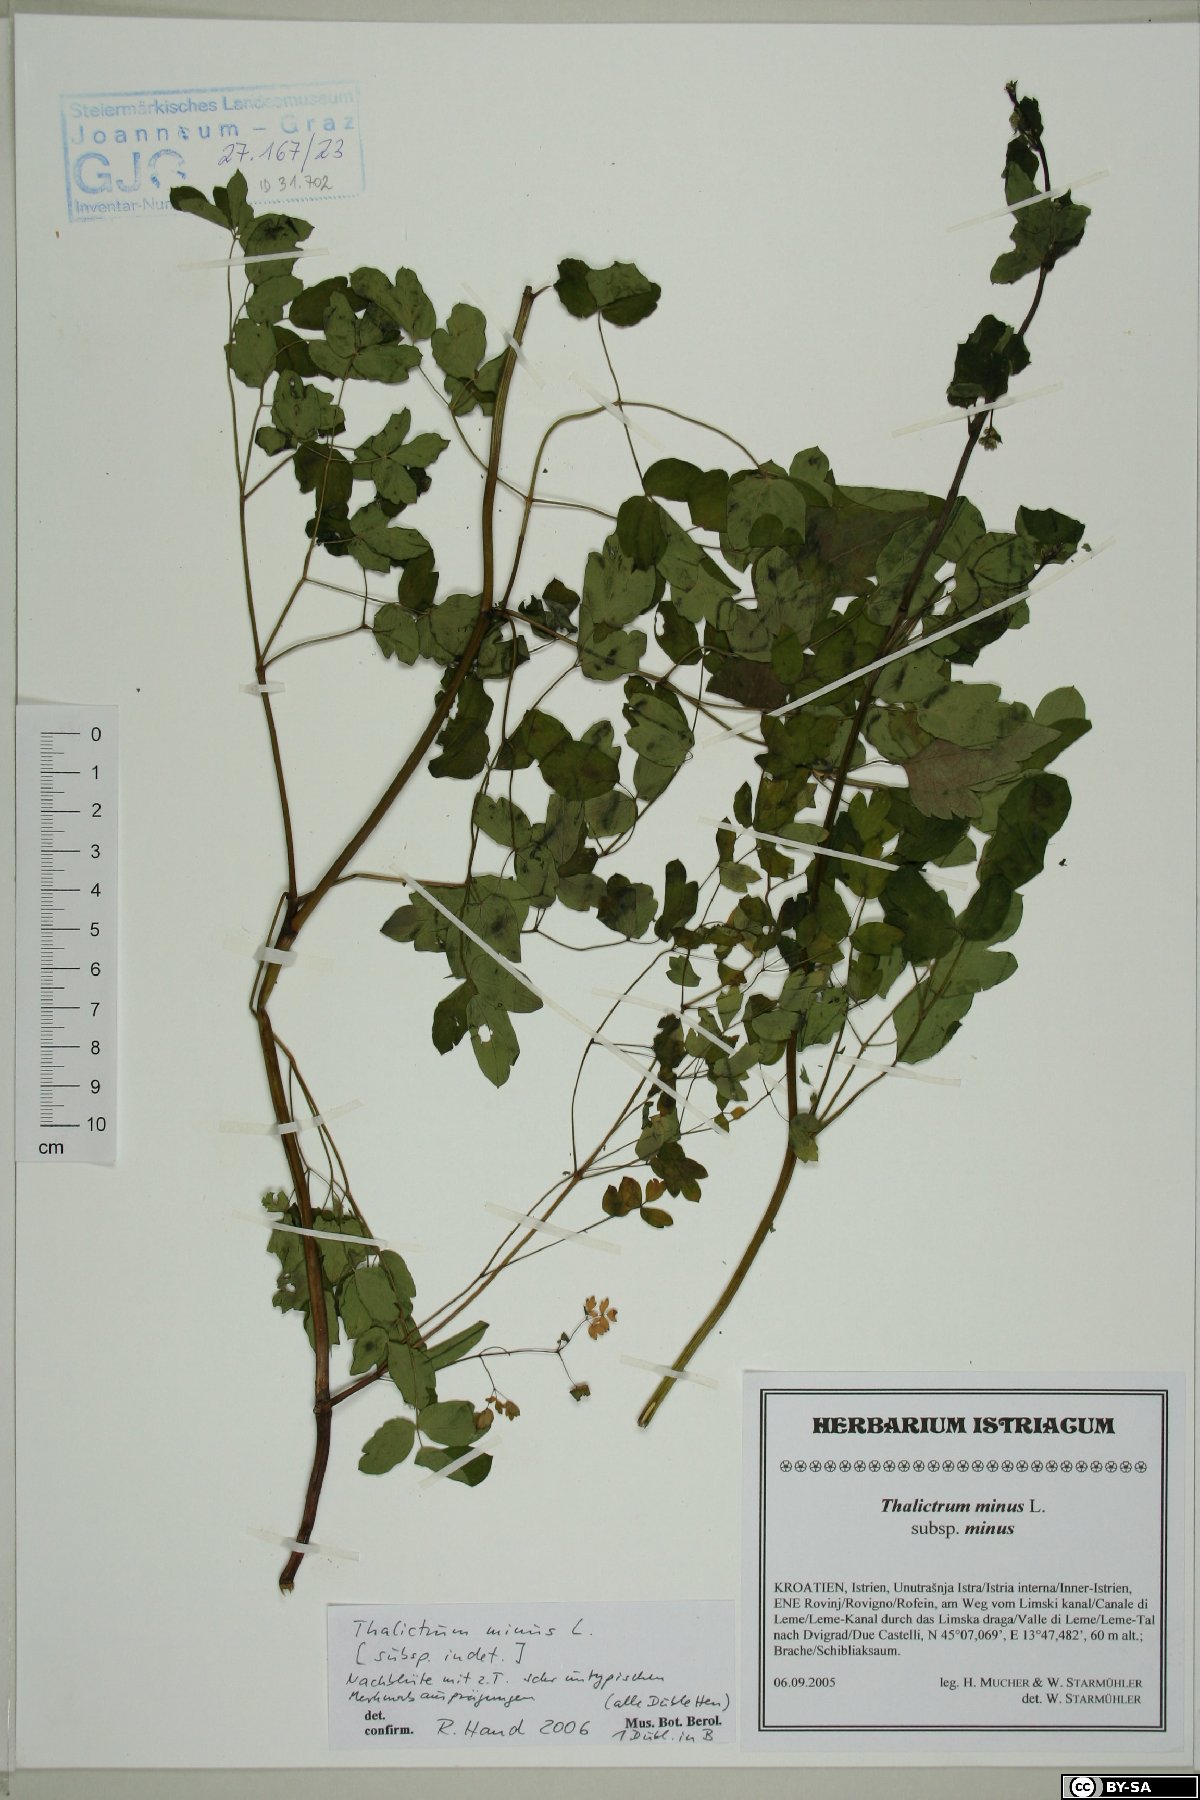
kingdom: Plantae
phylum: Tracheophyta
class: Magnoliopsida
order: Ranunculales
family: Ranunculaceae
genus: Thalictrum
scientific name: Thalictrum minus
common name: Lesser meadow-rue
